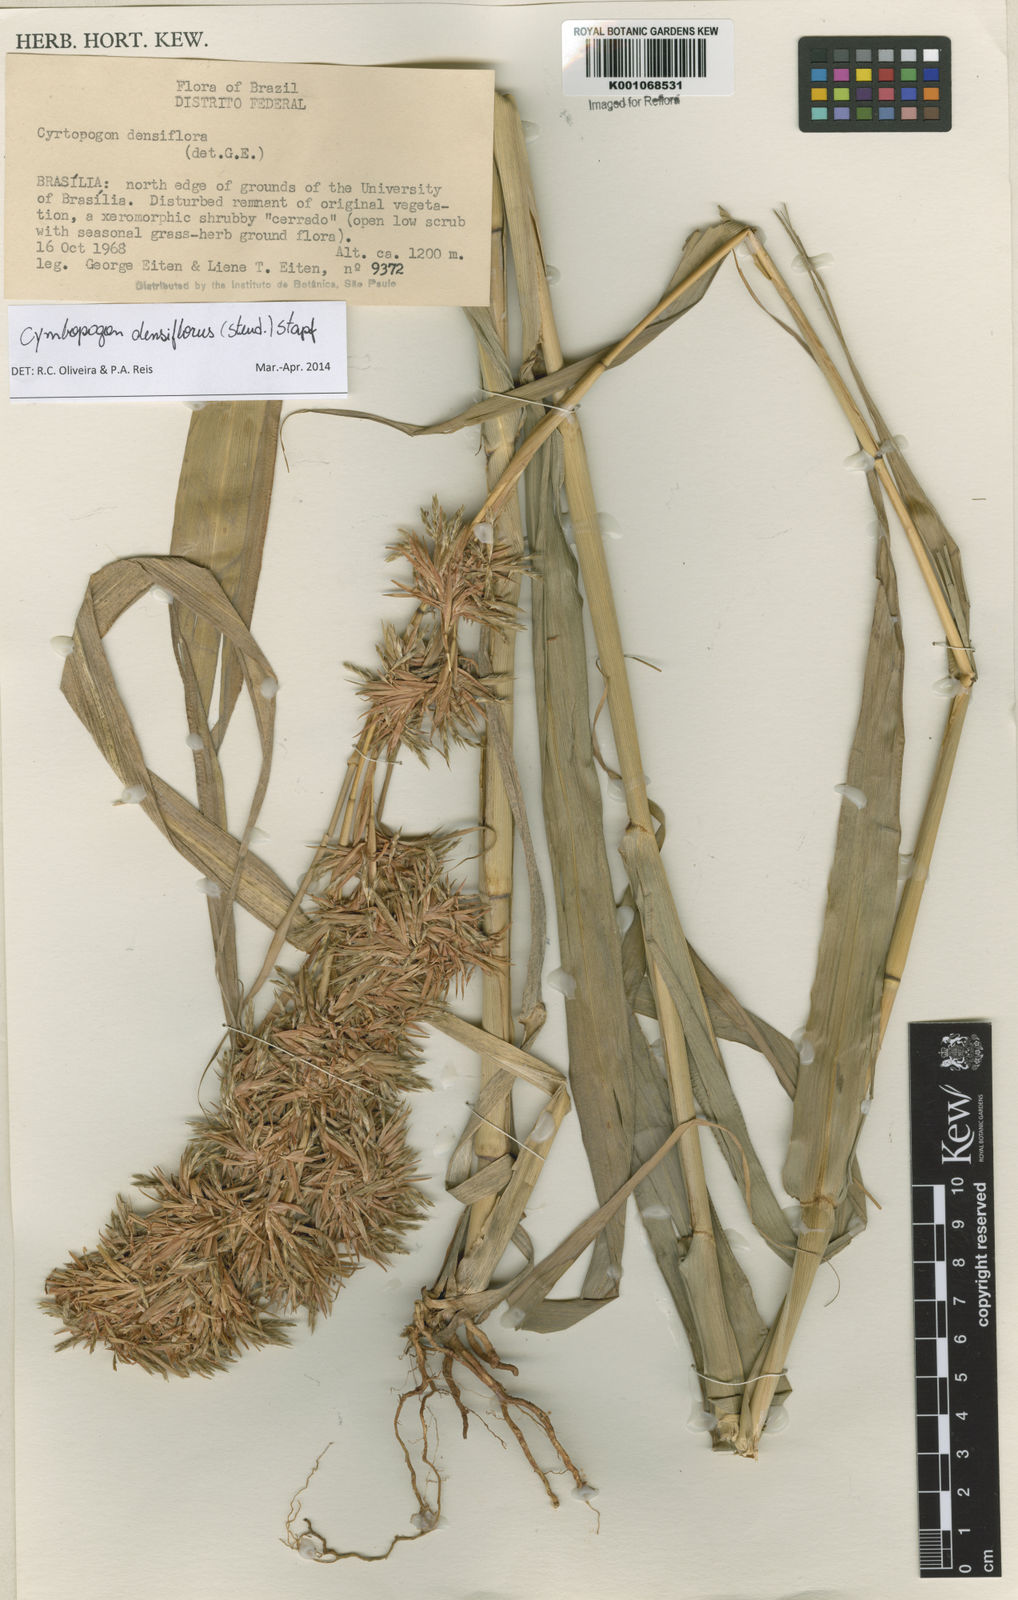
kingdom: Plantae
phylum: Tracheophyta
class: Liliopsida
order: Poales
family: Poaceae
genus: Cymbopogon
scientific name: Cymbopogon densiflorus
